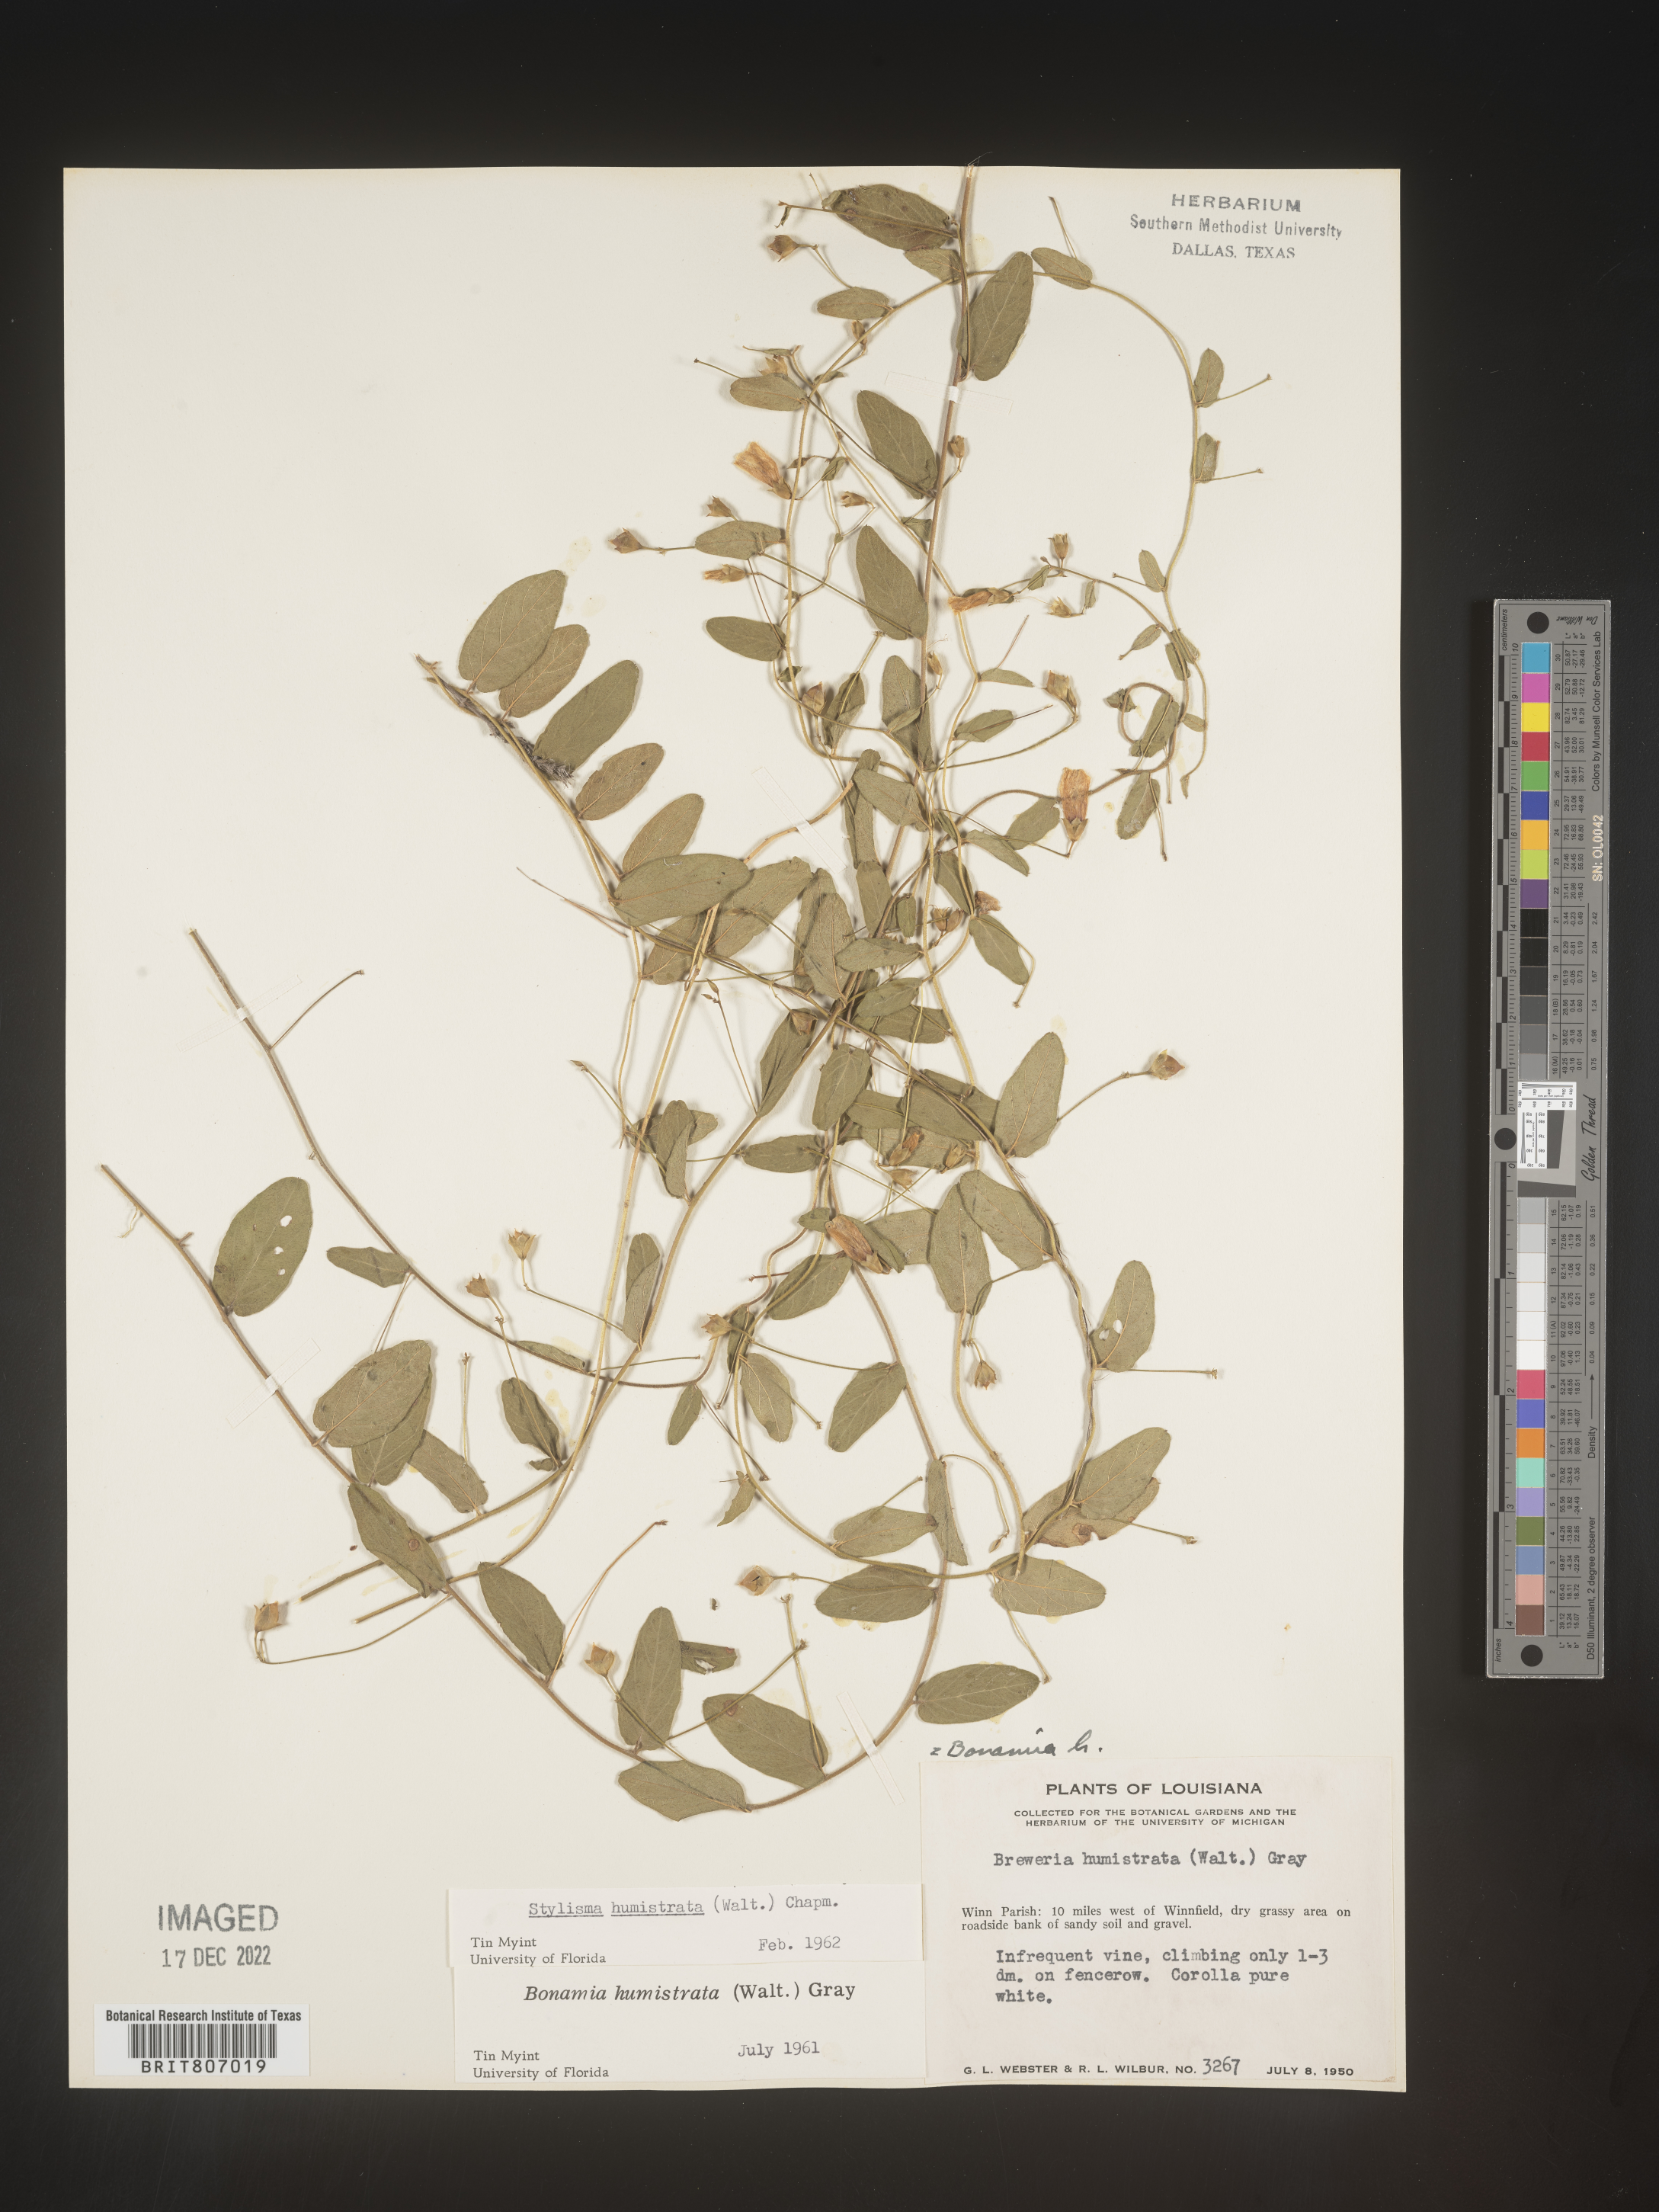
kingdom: Plantae
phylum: Tracheophyta
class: Magnoliopsida
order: Solanales
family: Convolvulaceae
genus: Stylisma
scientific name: Stylisma humistrata
